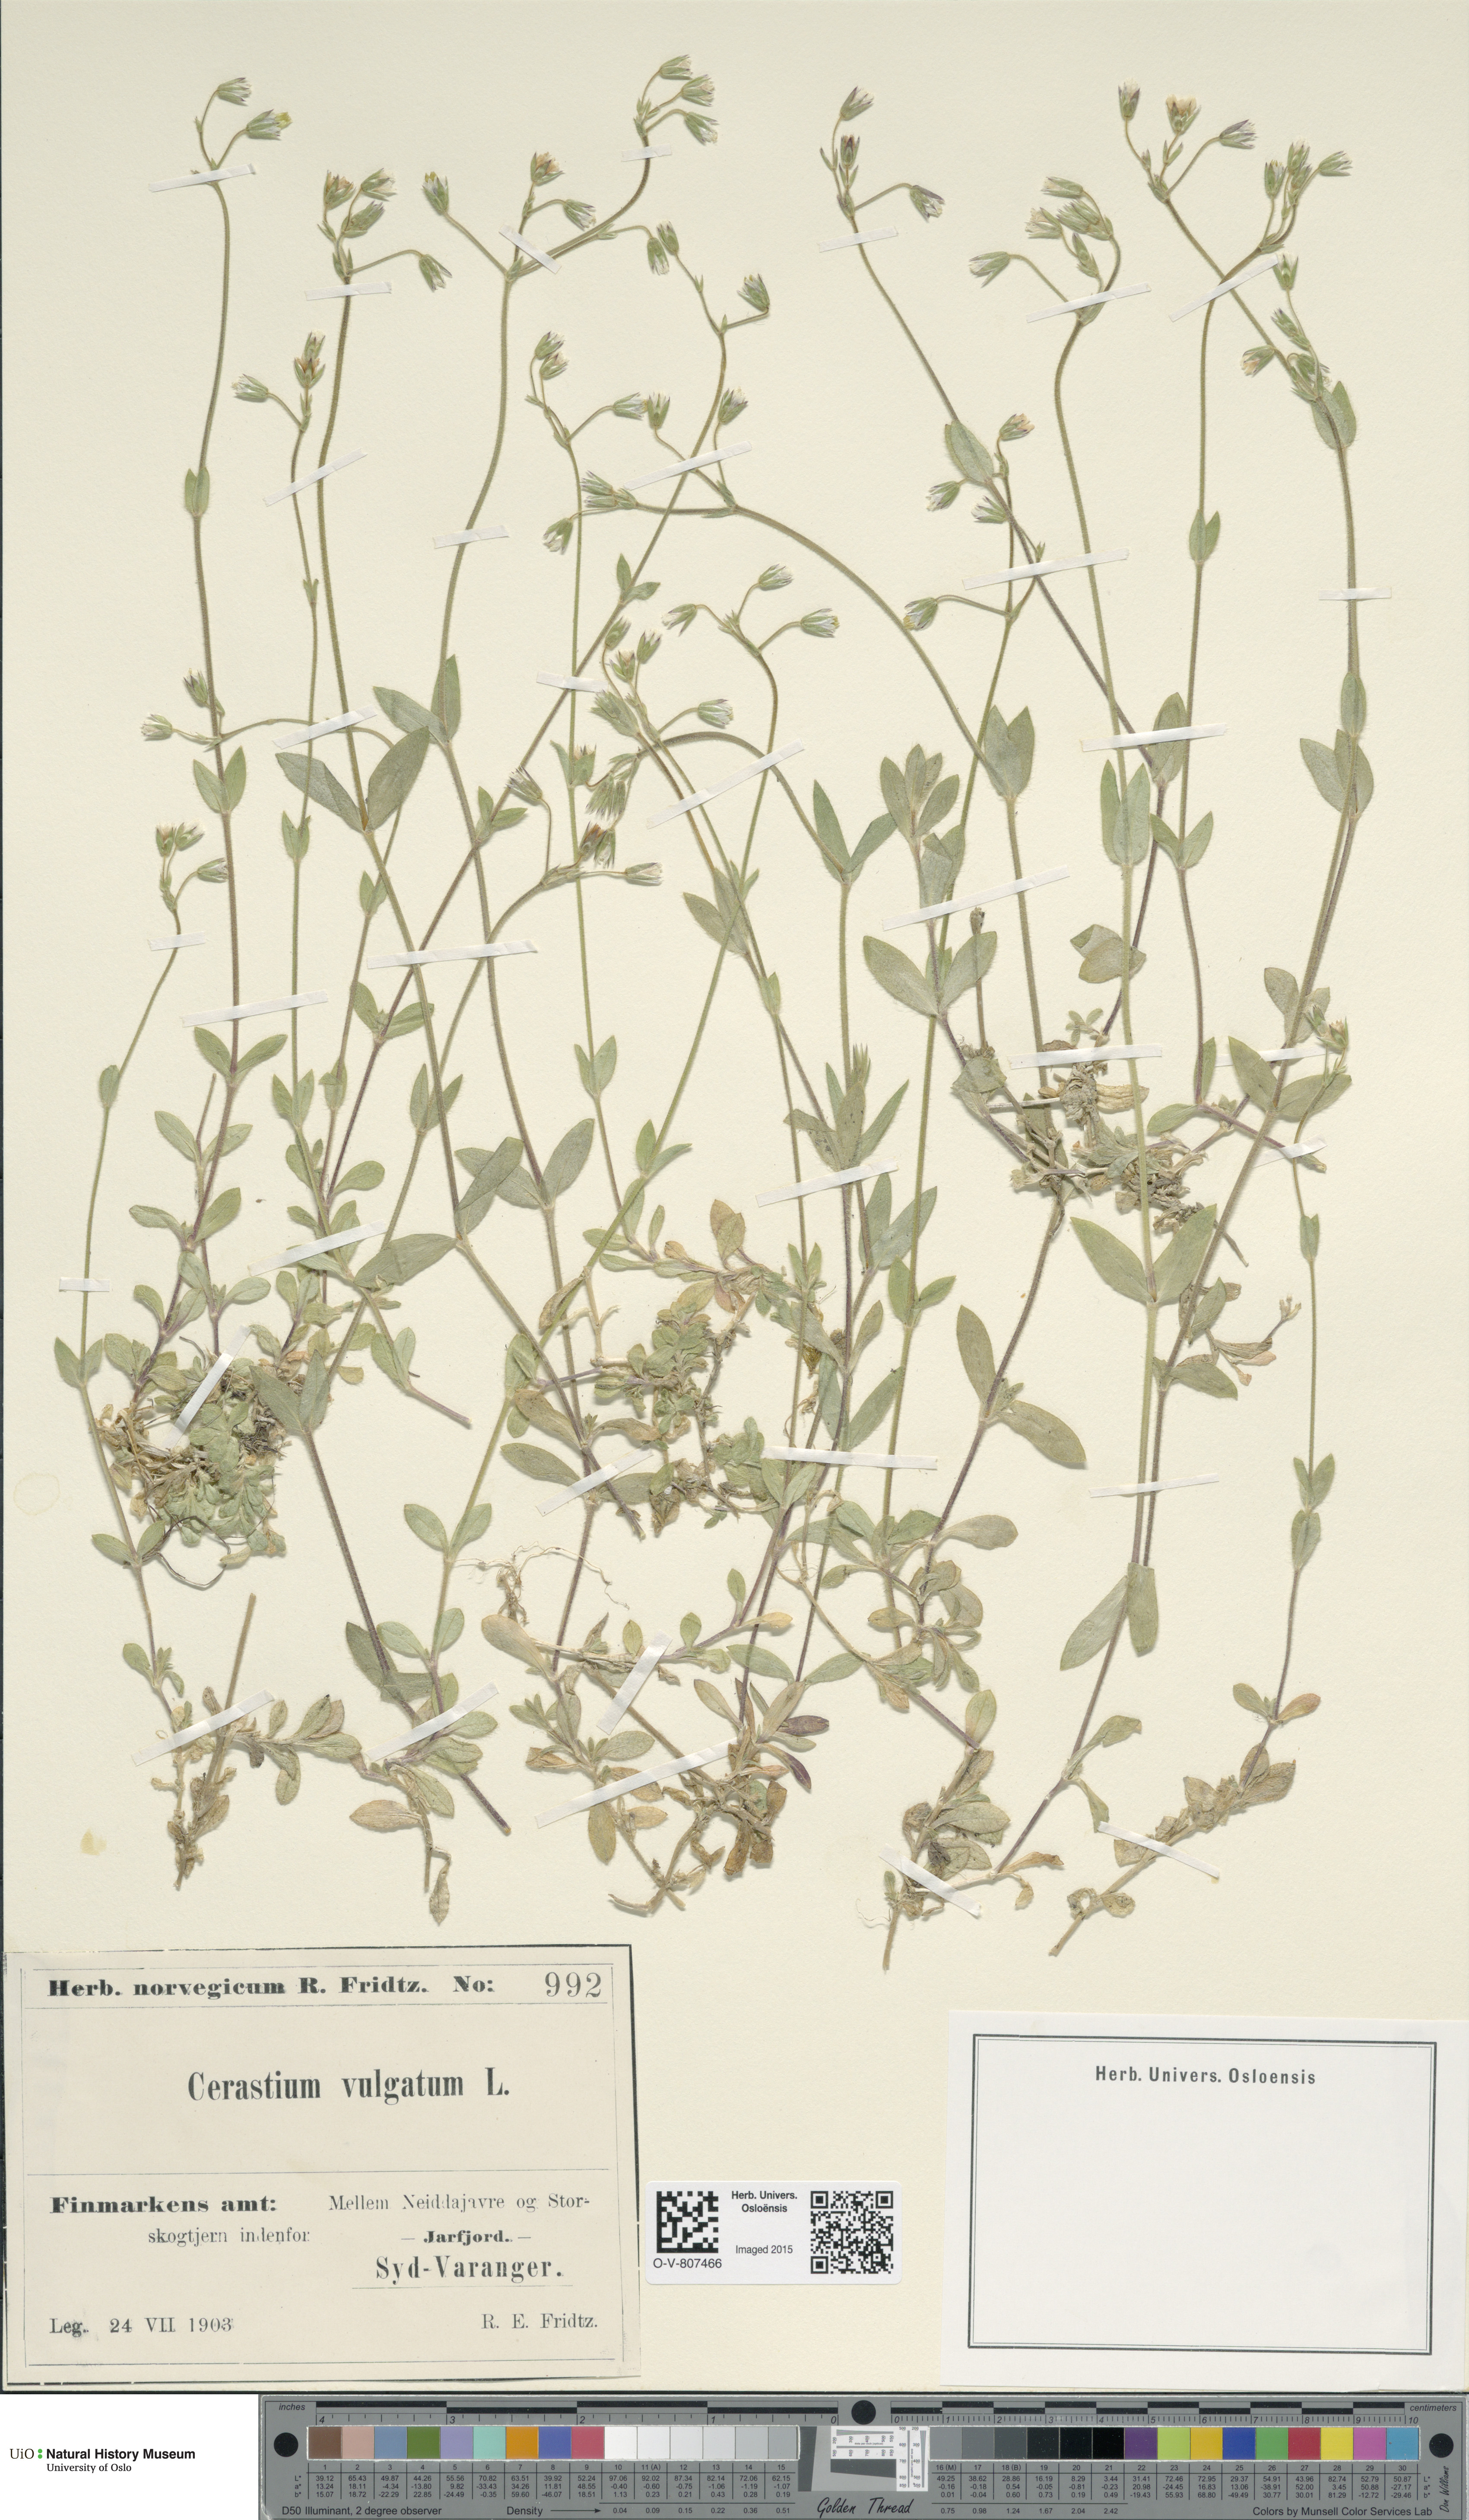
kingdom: Plantae
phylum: Tracheophyta
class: Magnoliopsida
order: Caryophyllales
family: Caryophyllaceae
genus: Cerastium
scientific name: Cerastium holosteoides
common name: Big chickweed
